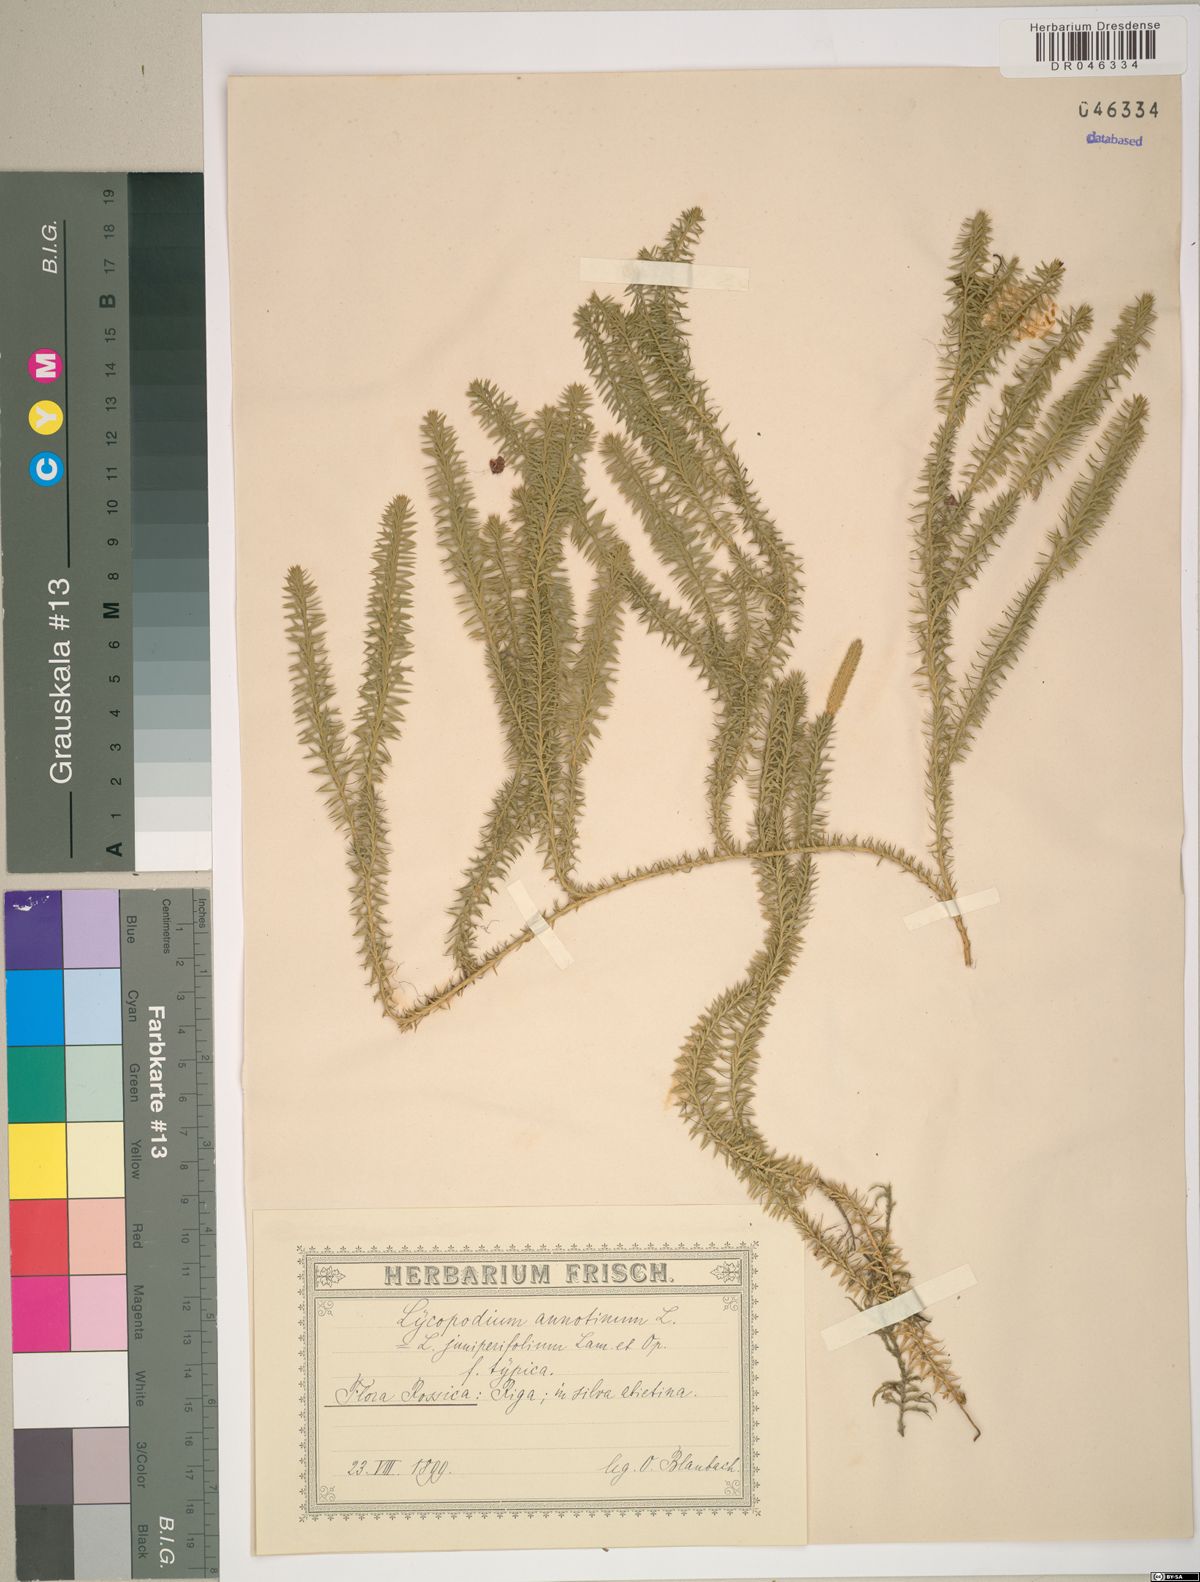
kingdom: Plantae
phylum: Tracheophyta
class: Lycopodiopsida
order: Lycopodiales
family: Lycopodiaceae
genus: Spinulum
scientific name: Spinulum annotinum
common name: Interrupted club-moss
